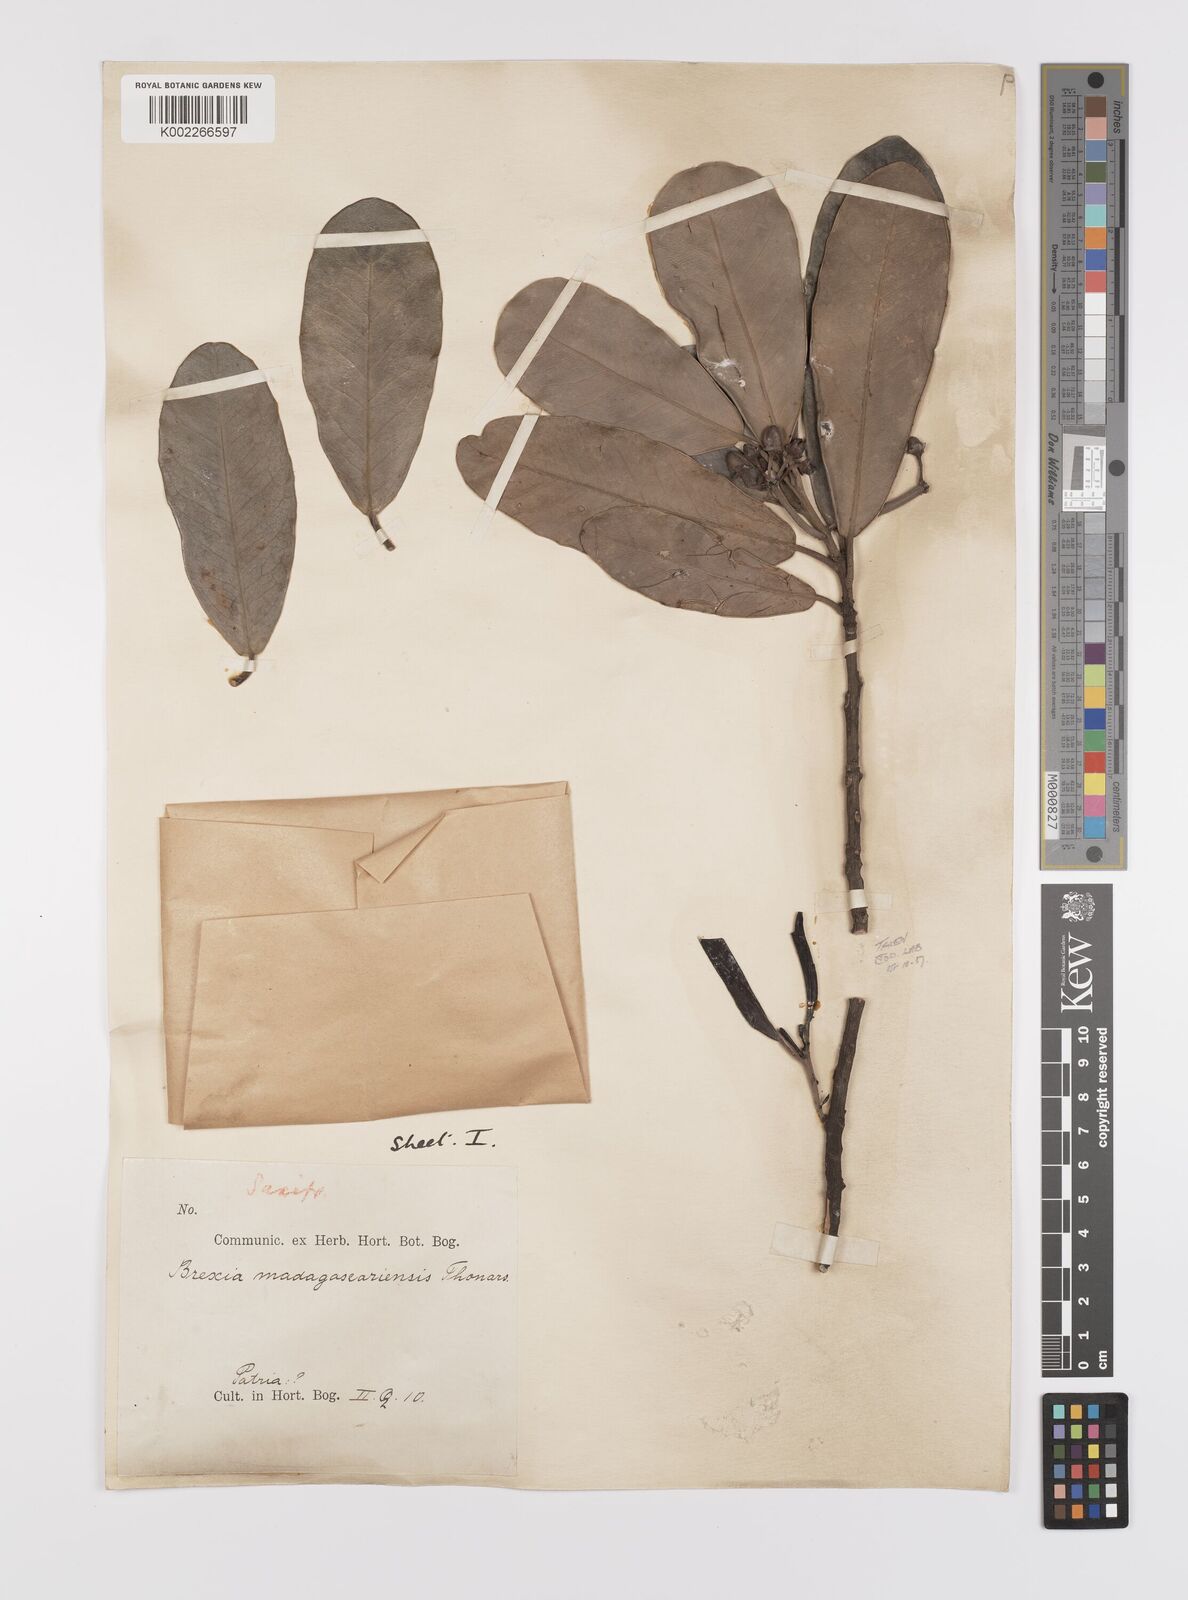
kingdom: Plantae
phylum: Tracheophyta
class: Magnoliopsida
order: Celastrales
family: Celastraceae
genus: Brexia
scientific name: Brexia madagascariensis
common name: Brexia
